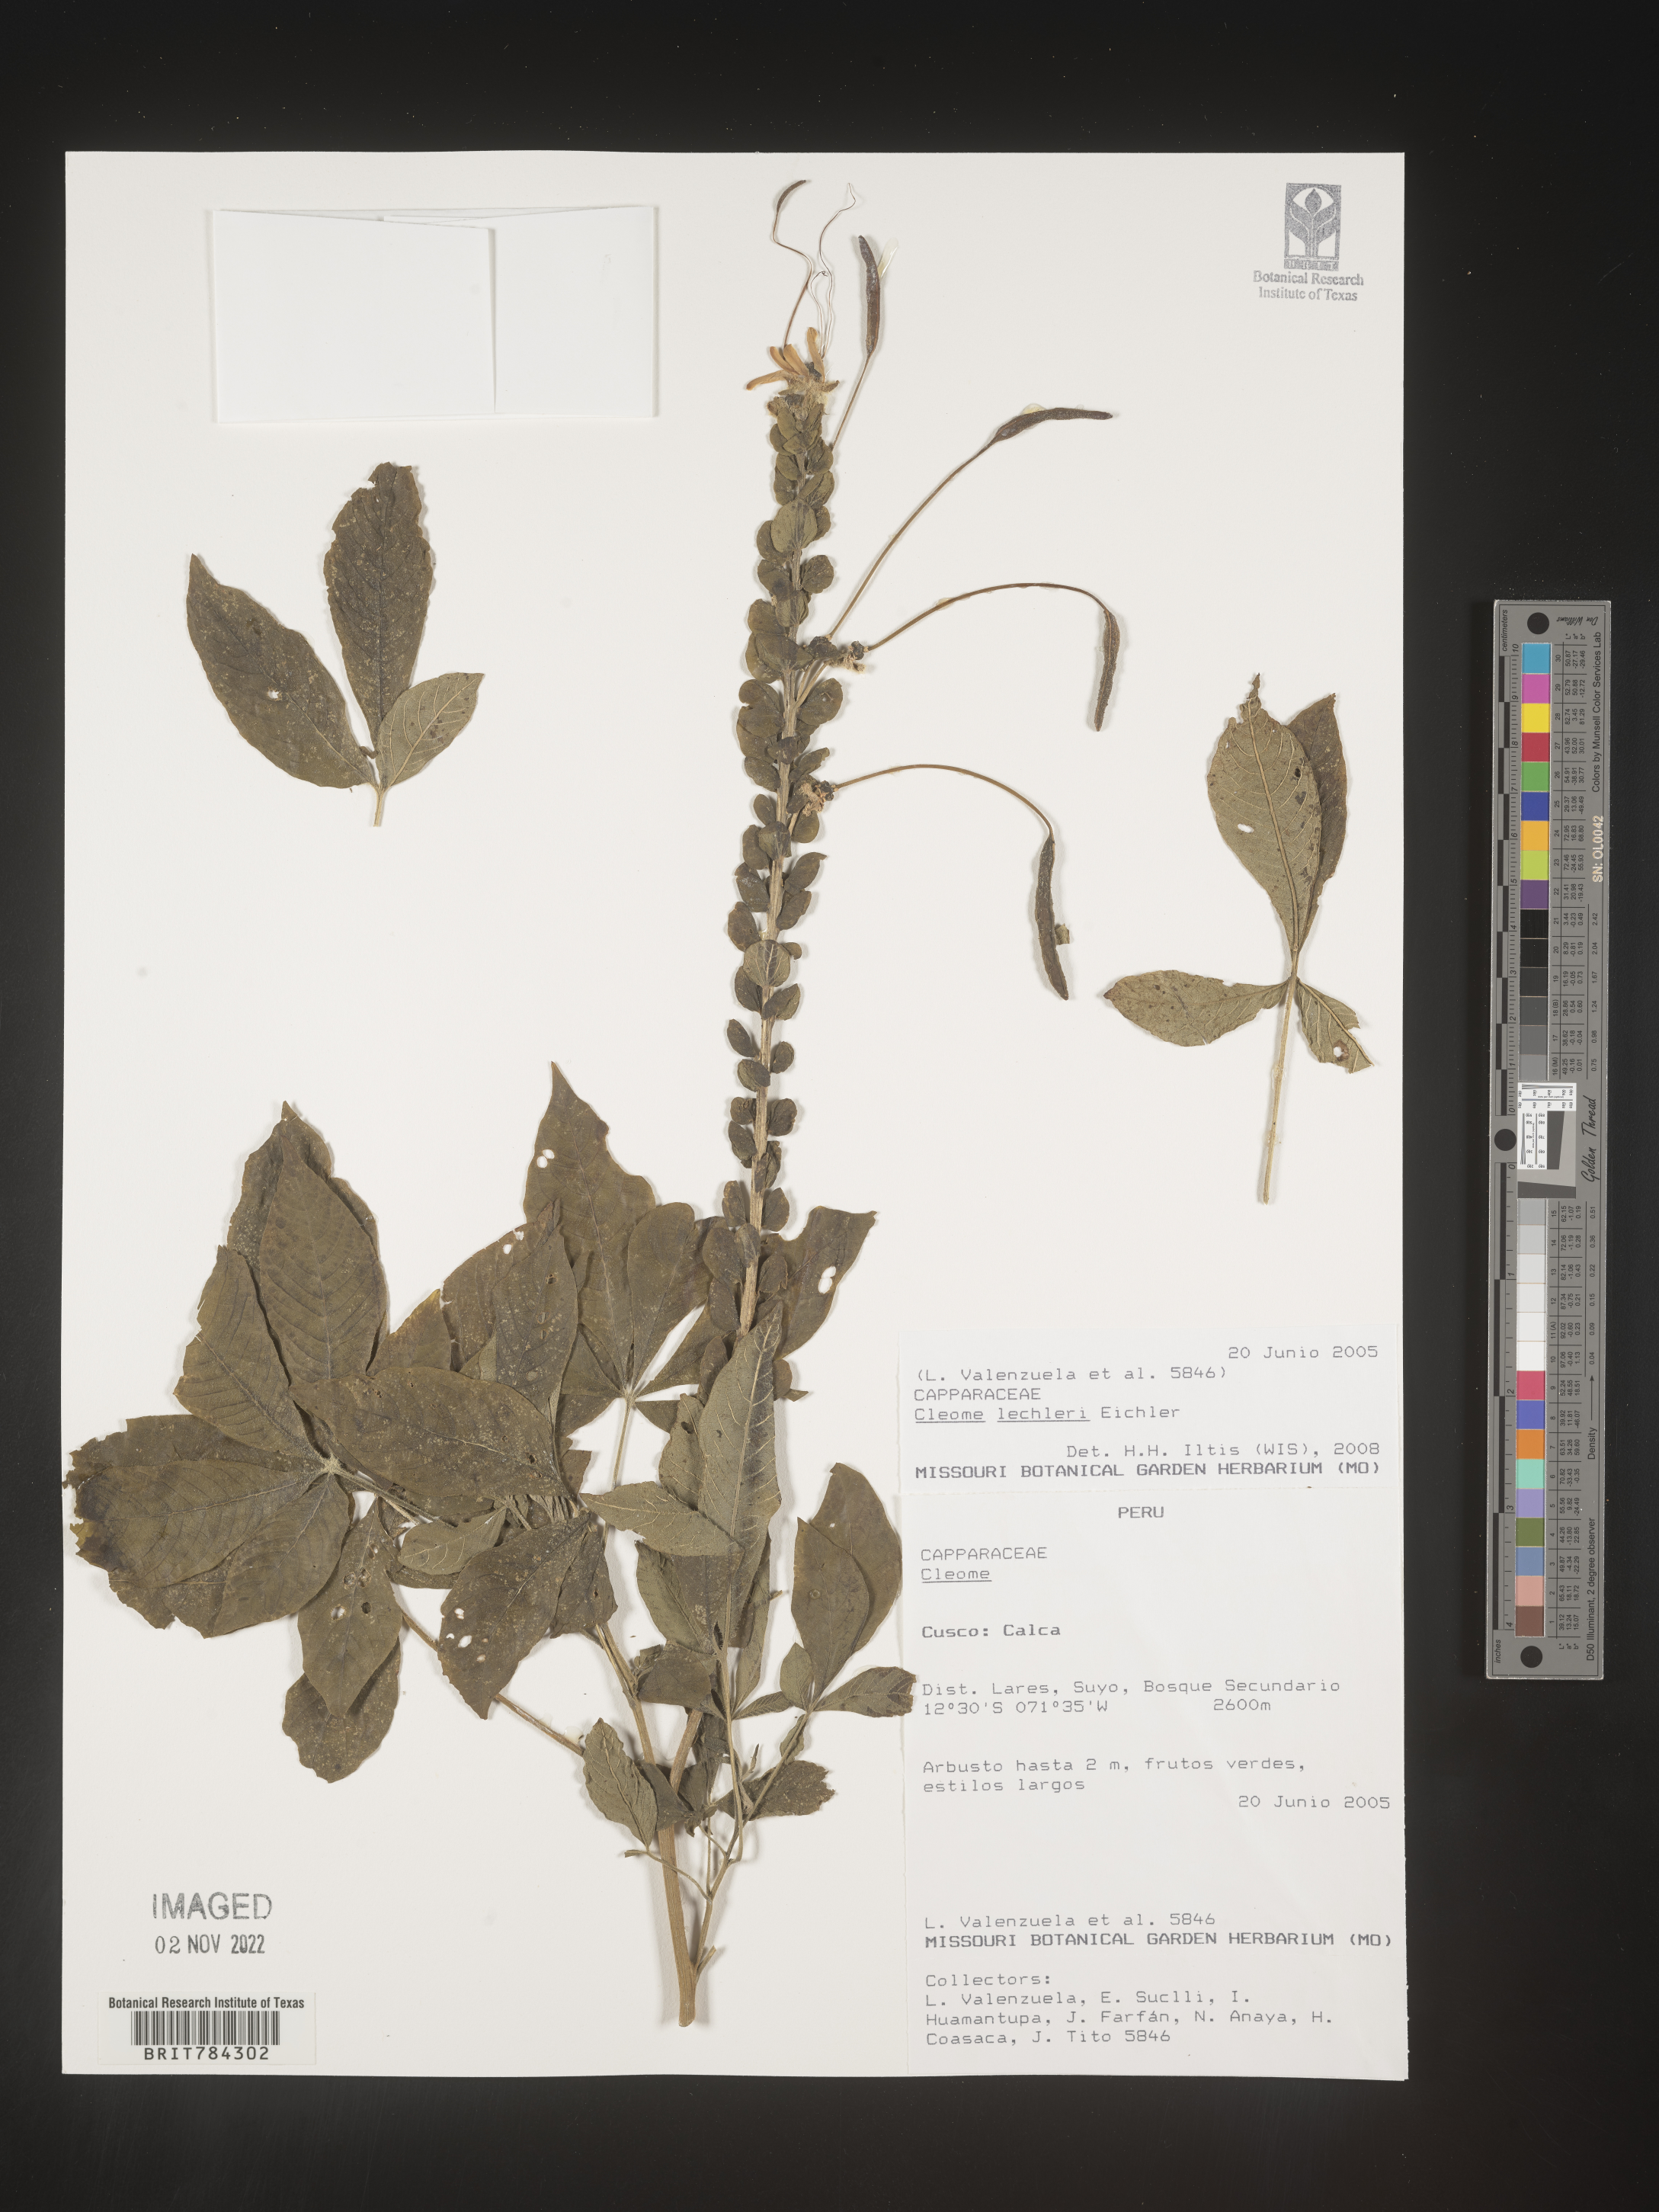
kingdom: Plantae
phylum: Tracheophyta
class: Magnoliopsida
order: Brassicales
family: Cleomaceae
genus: Cleome
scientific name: Cleome
